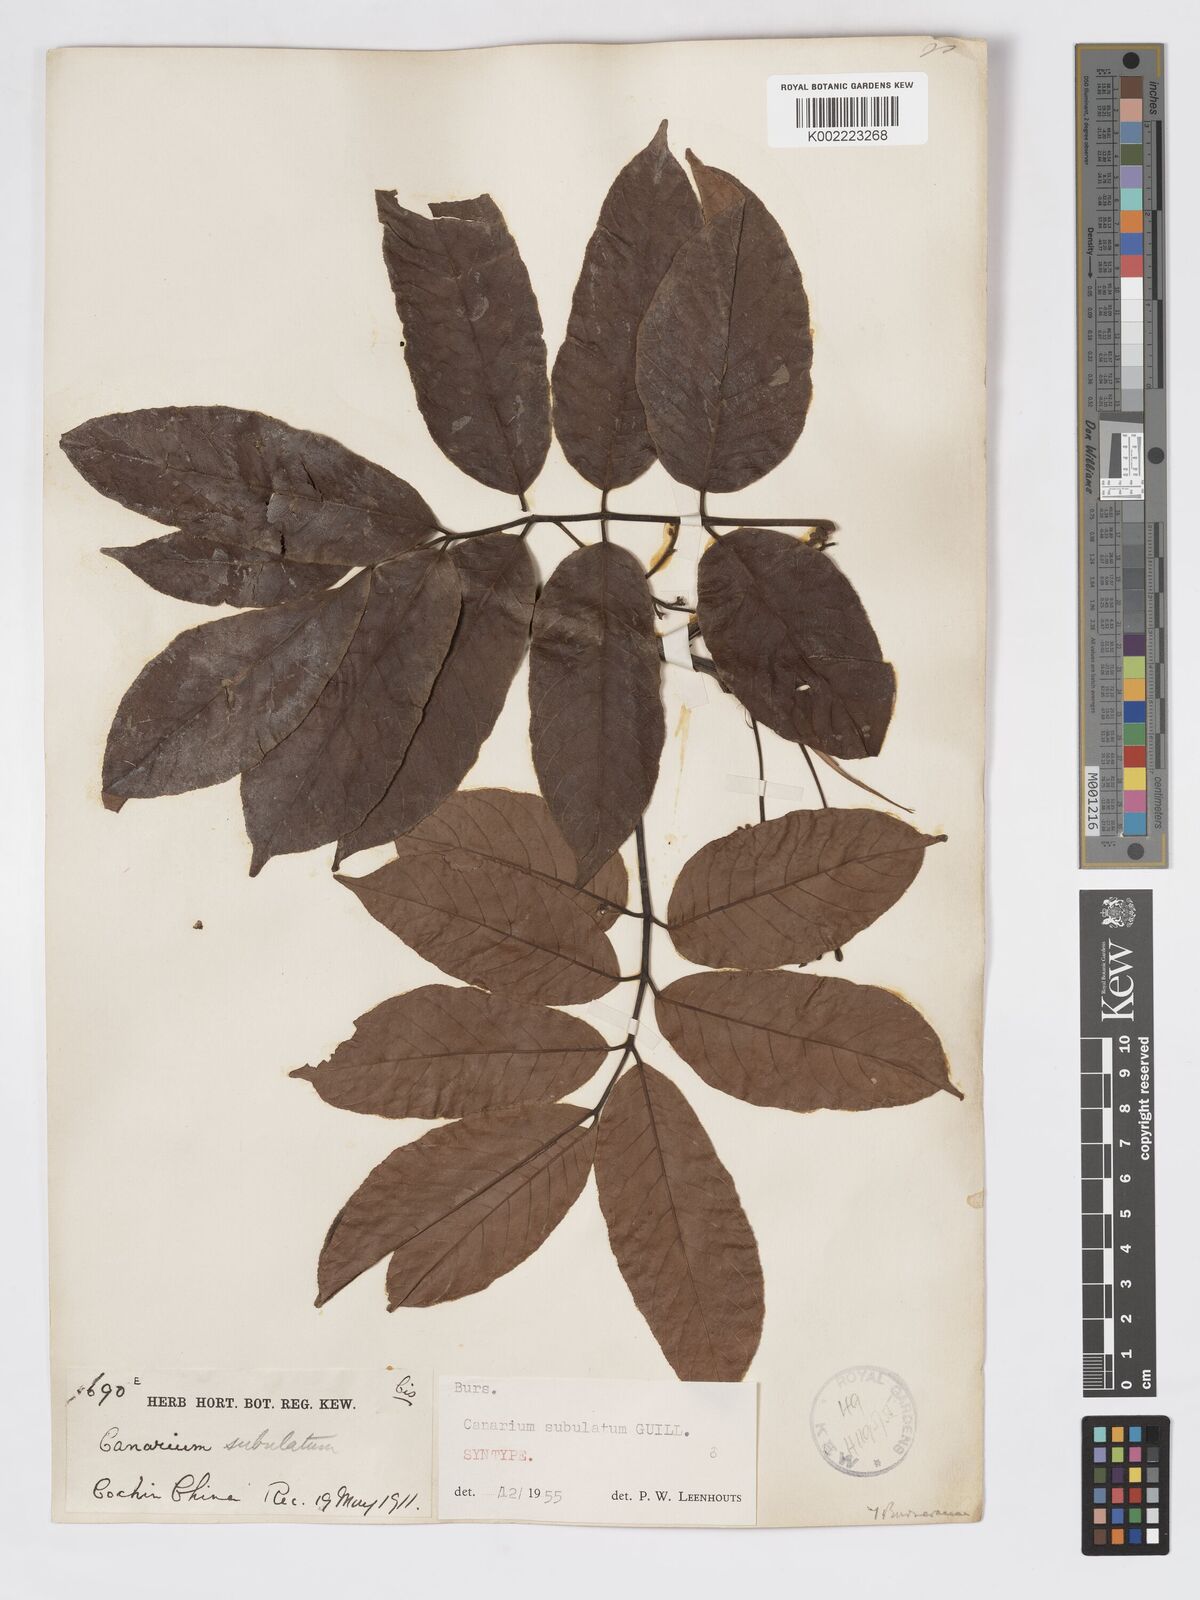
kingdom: Plantae
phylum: Tracheophyta
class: Magnoliopsida
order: Sapindales
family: Burseraceae
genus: Canarium
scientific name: Canarium subulatum
